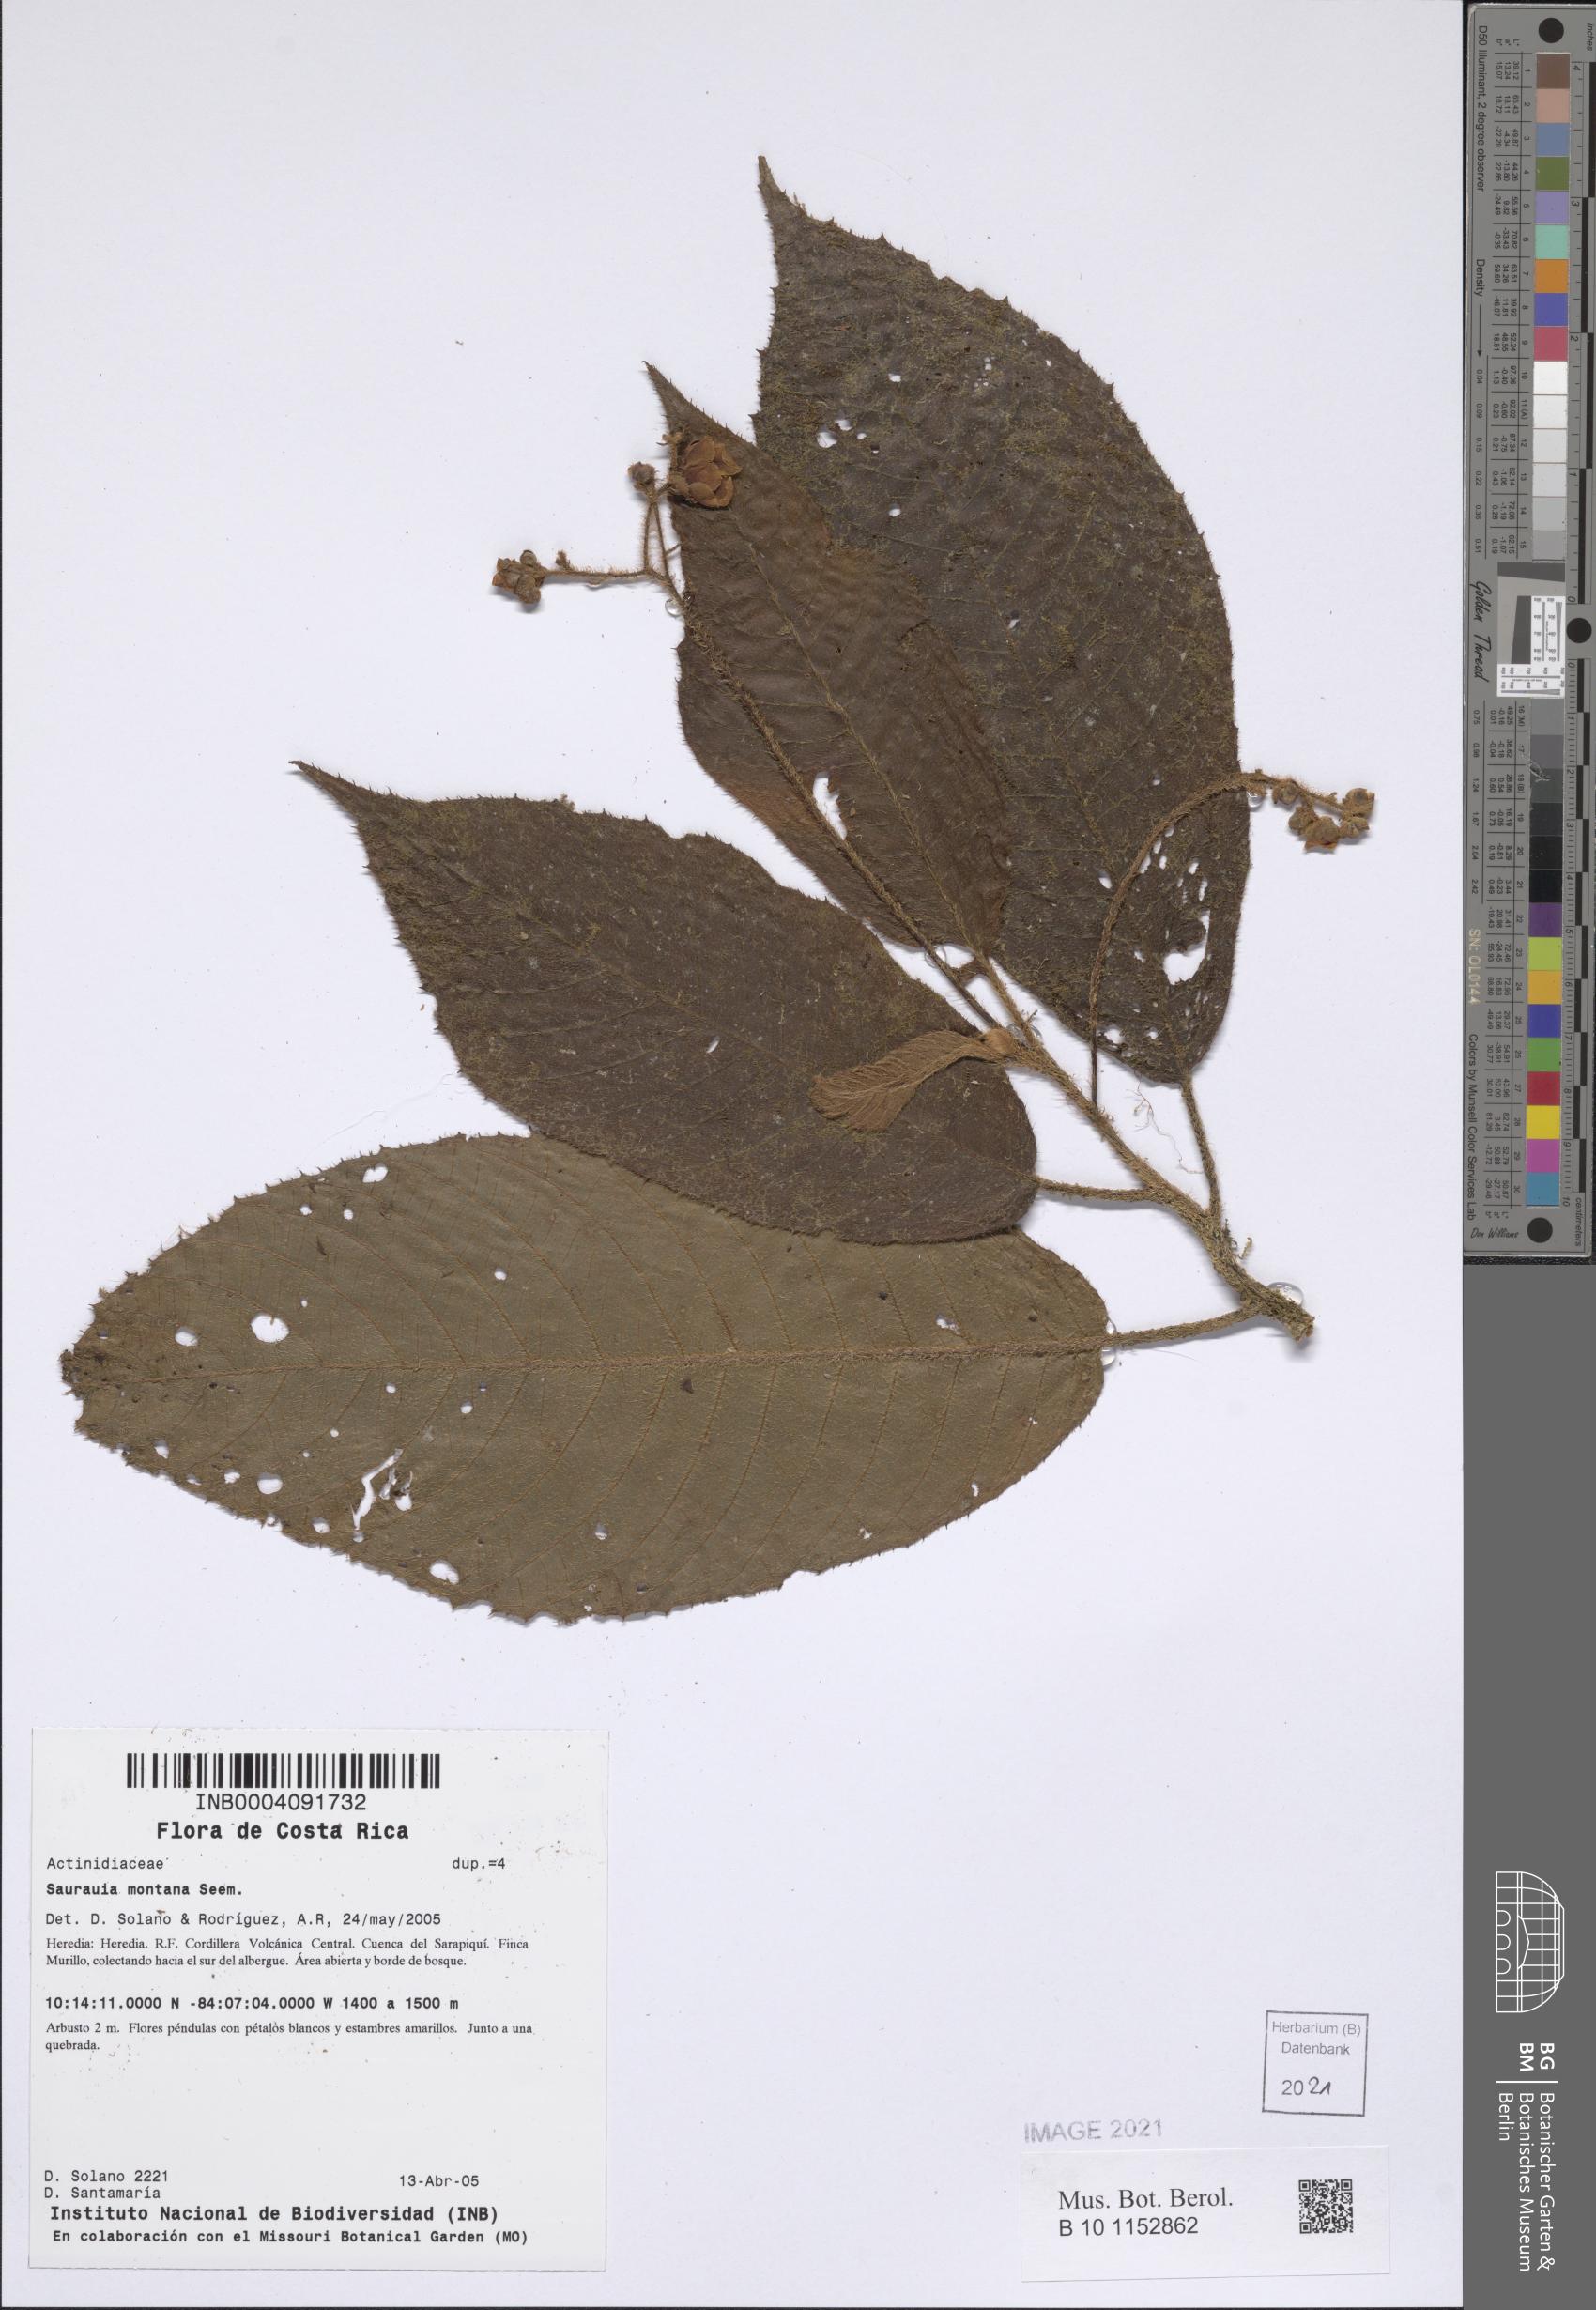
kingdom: Plantae
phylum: Tracheophyta
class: Magnoliopsida
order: Ericales
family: Actinidiaceae
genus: Saurauia
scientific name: Saurauia montana
